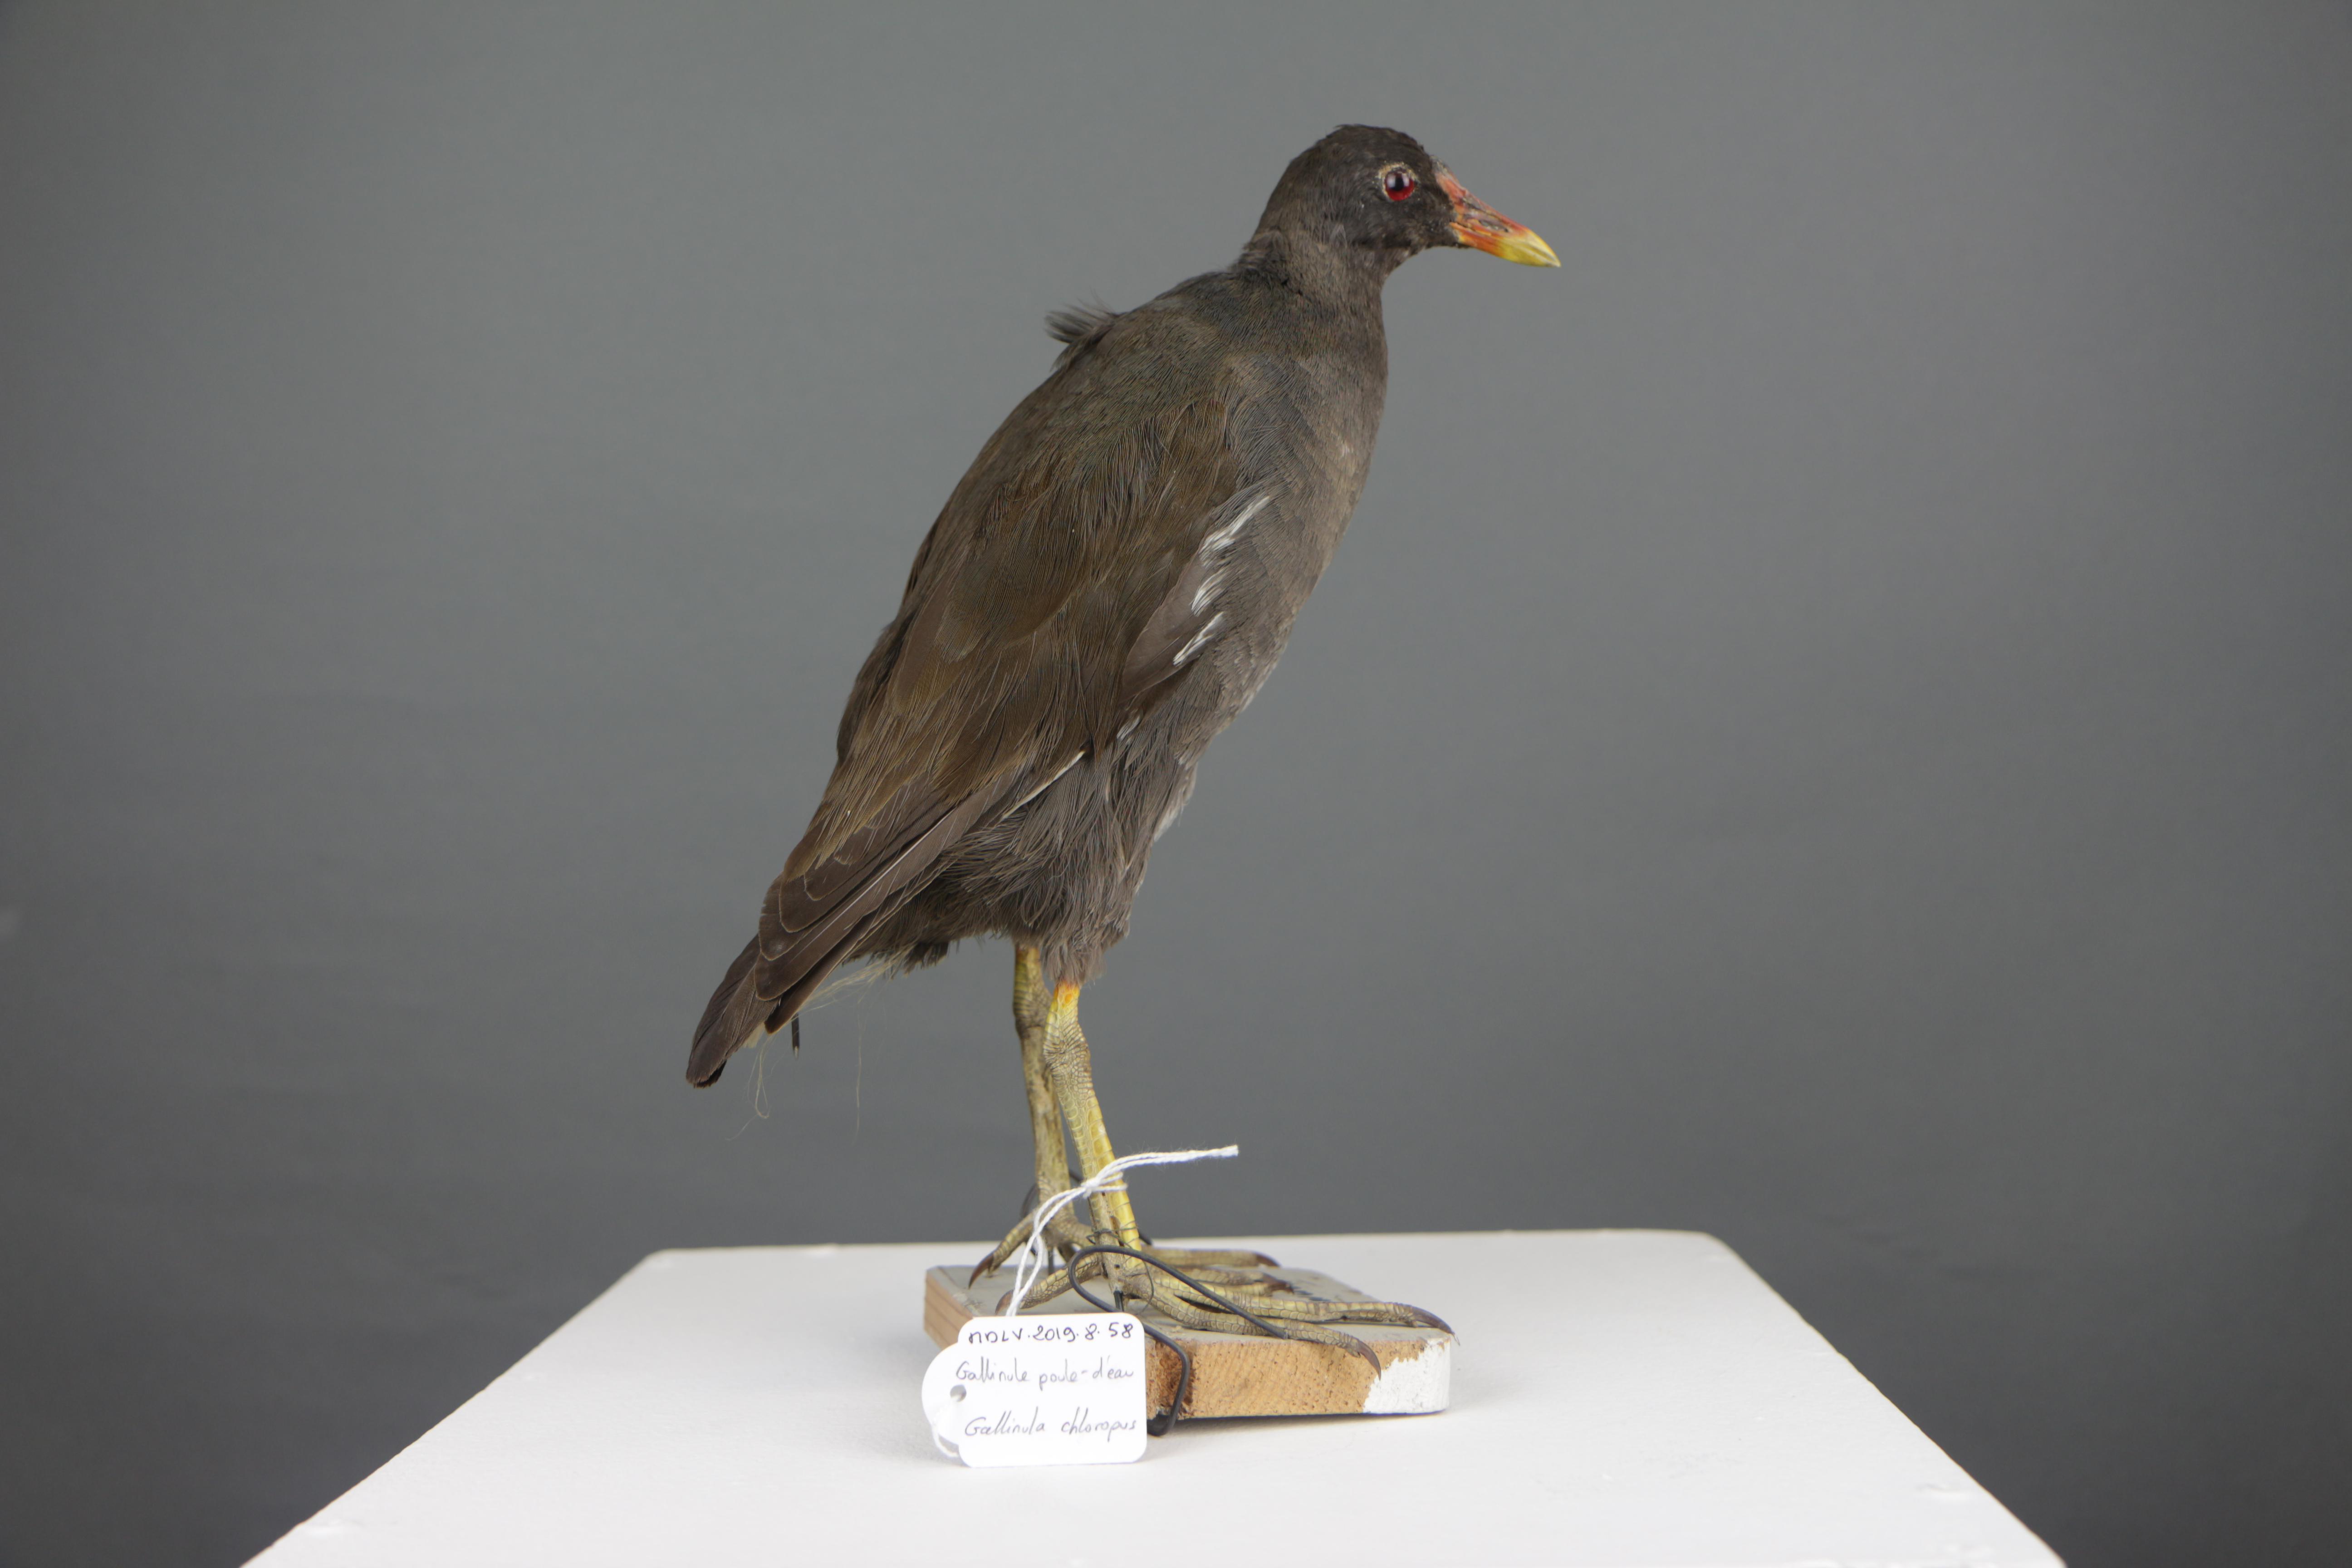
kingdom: Animalia
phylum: Chordata
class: Aves
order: Gruiformes
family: Rallidae
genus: Gallinula
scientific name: Gallinula chloropus
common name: Common moorhen
